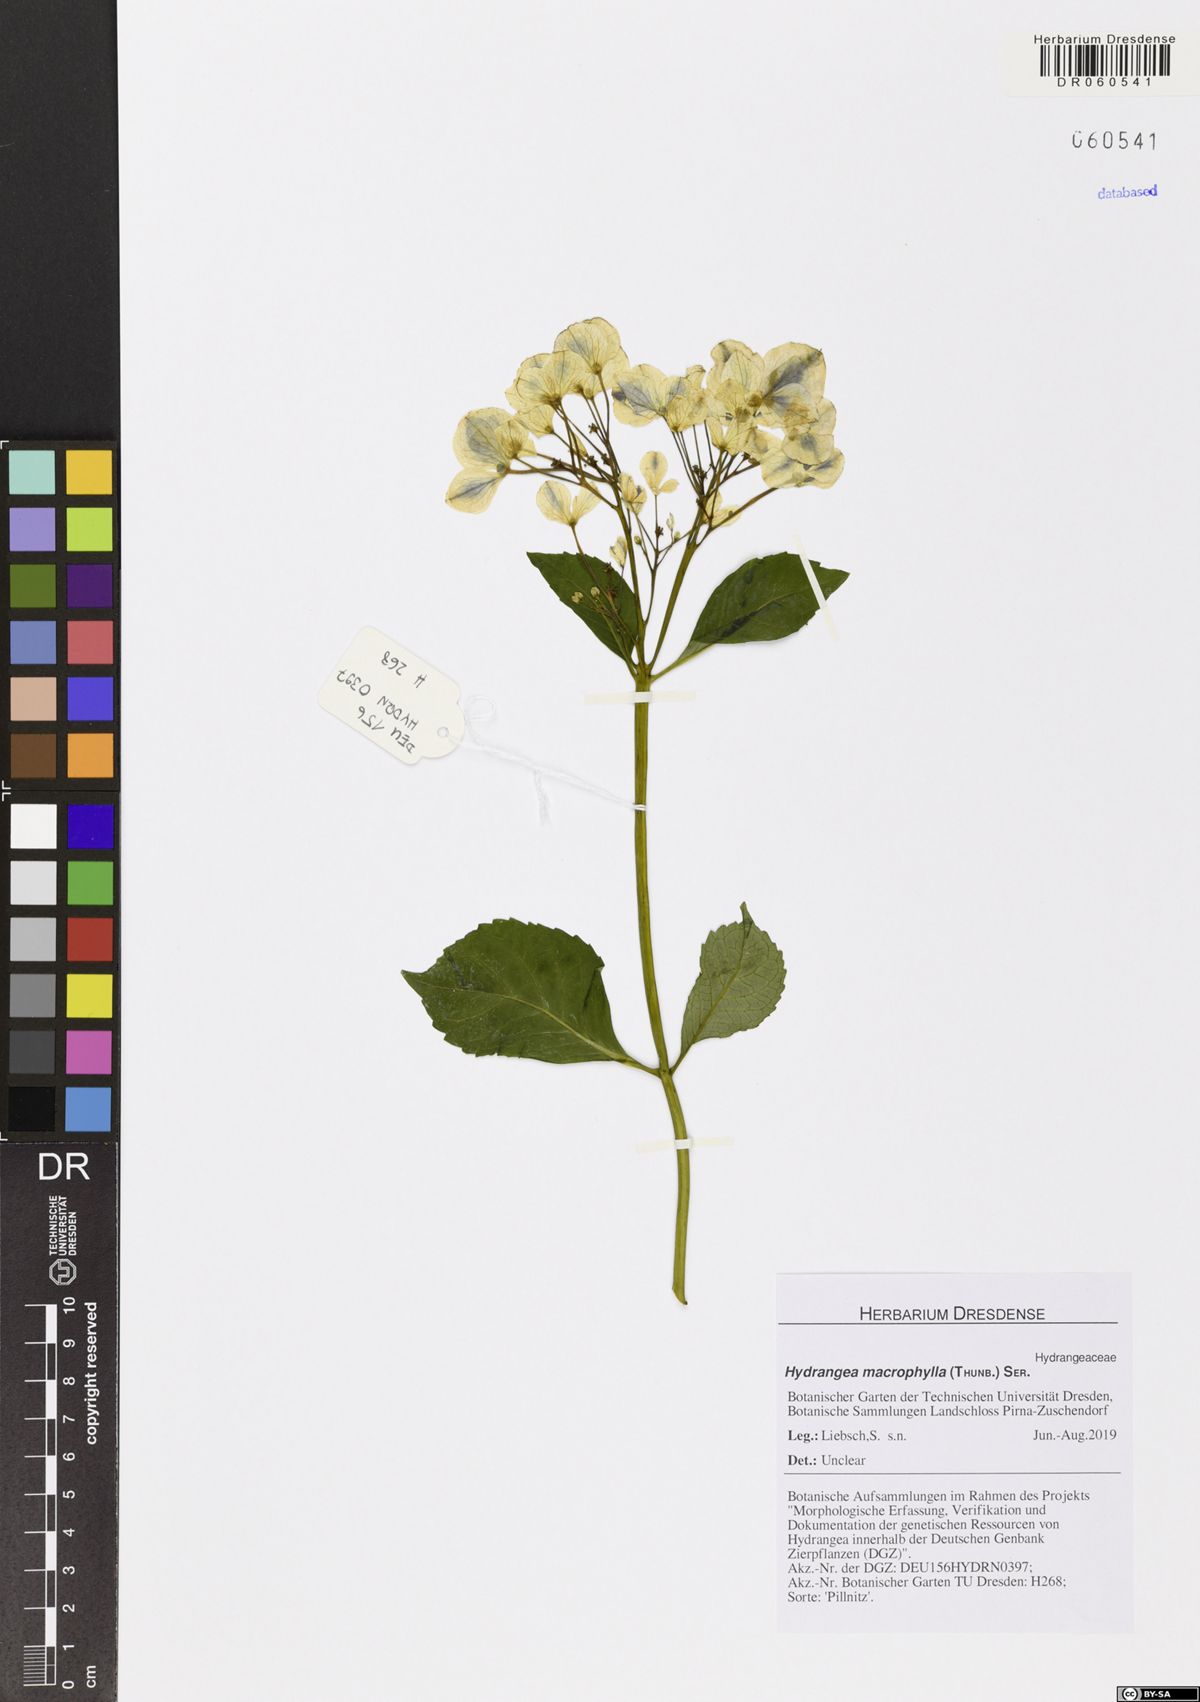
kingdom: Plantae
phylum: Tracheophyta
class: Magnoliopsida
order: Cornales
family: Hydrangeaceae
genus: Hydrangea
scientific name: Hydrangea macrophylla
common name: Hydrangea
